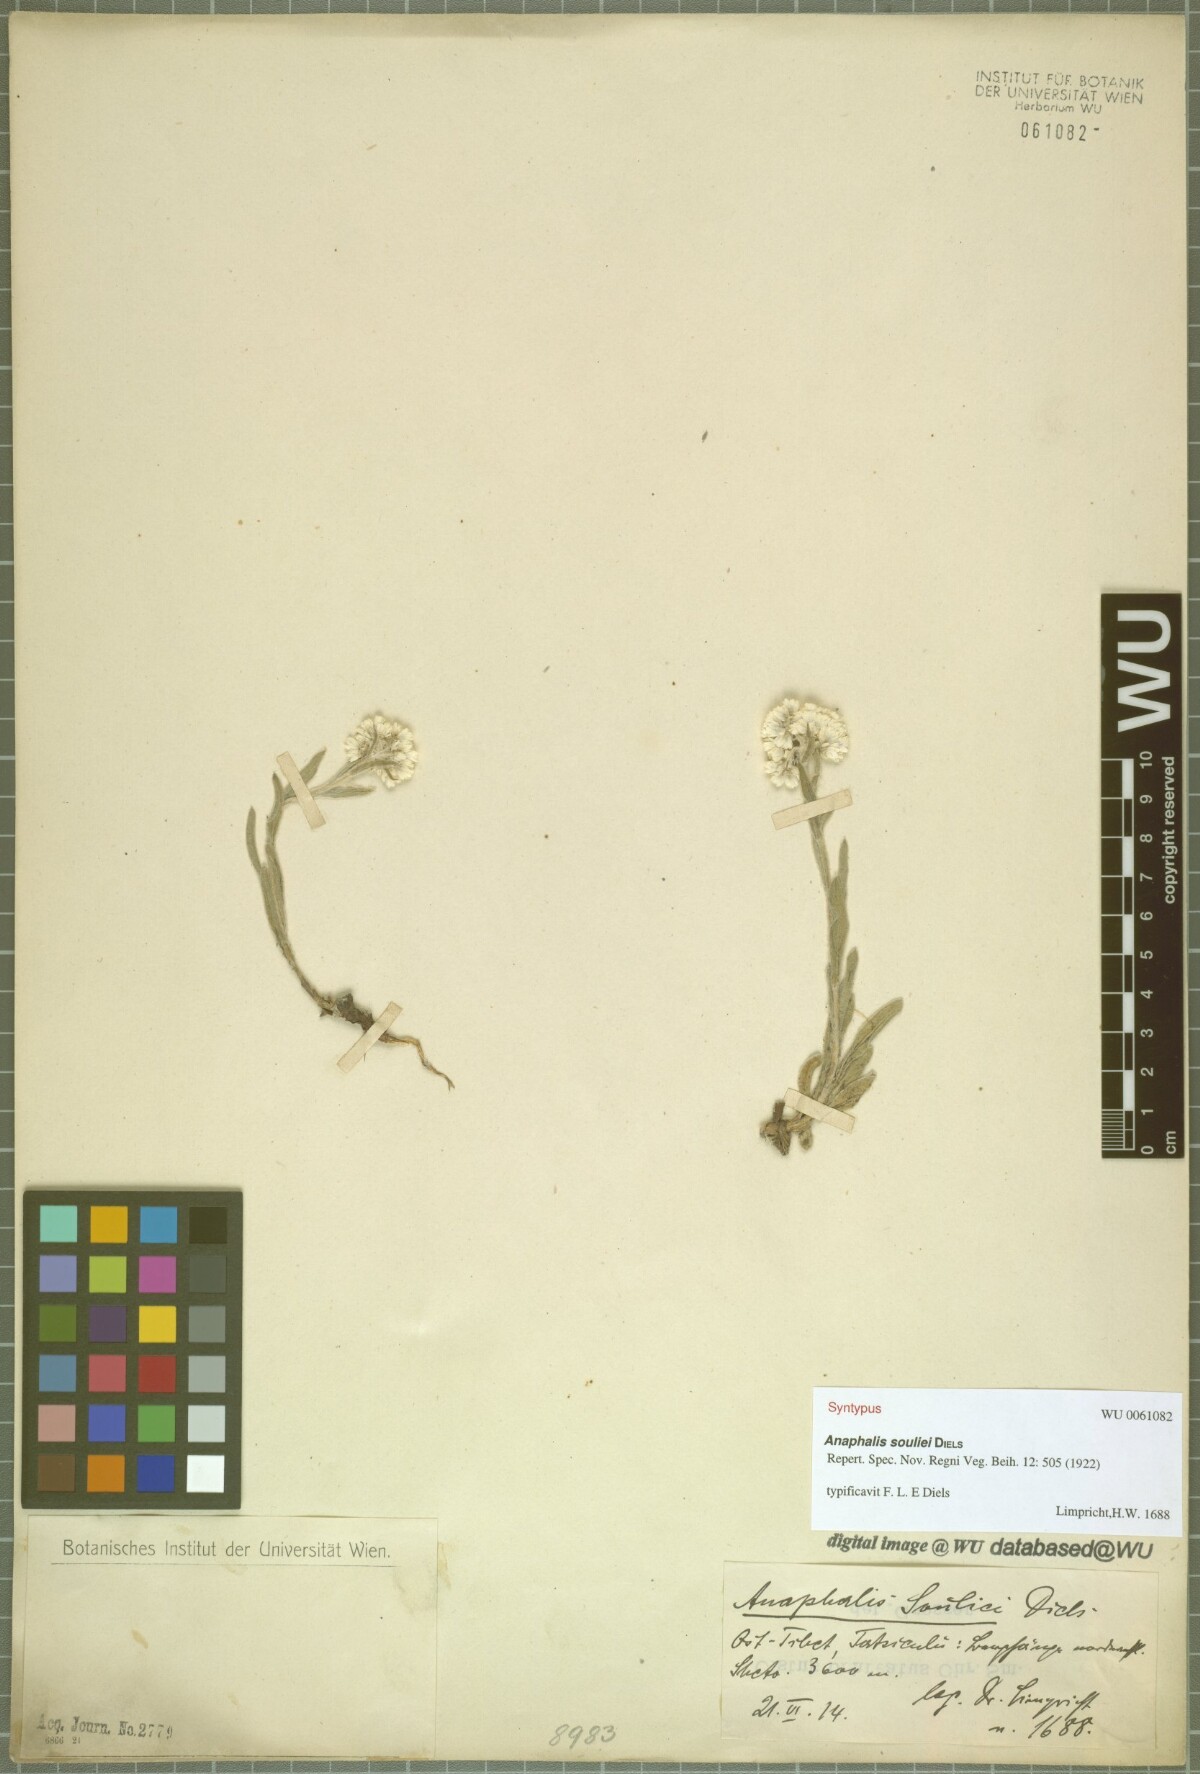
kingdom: Plantae
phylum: Tracheophyta
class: Magnoliopsida
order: Asterales
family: Asteraceae
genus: Anaphalis
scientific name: Anaphalis souliei
